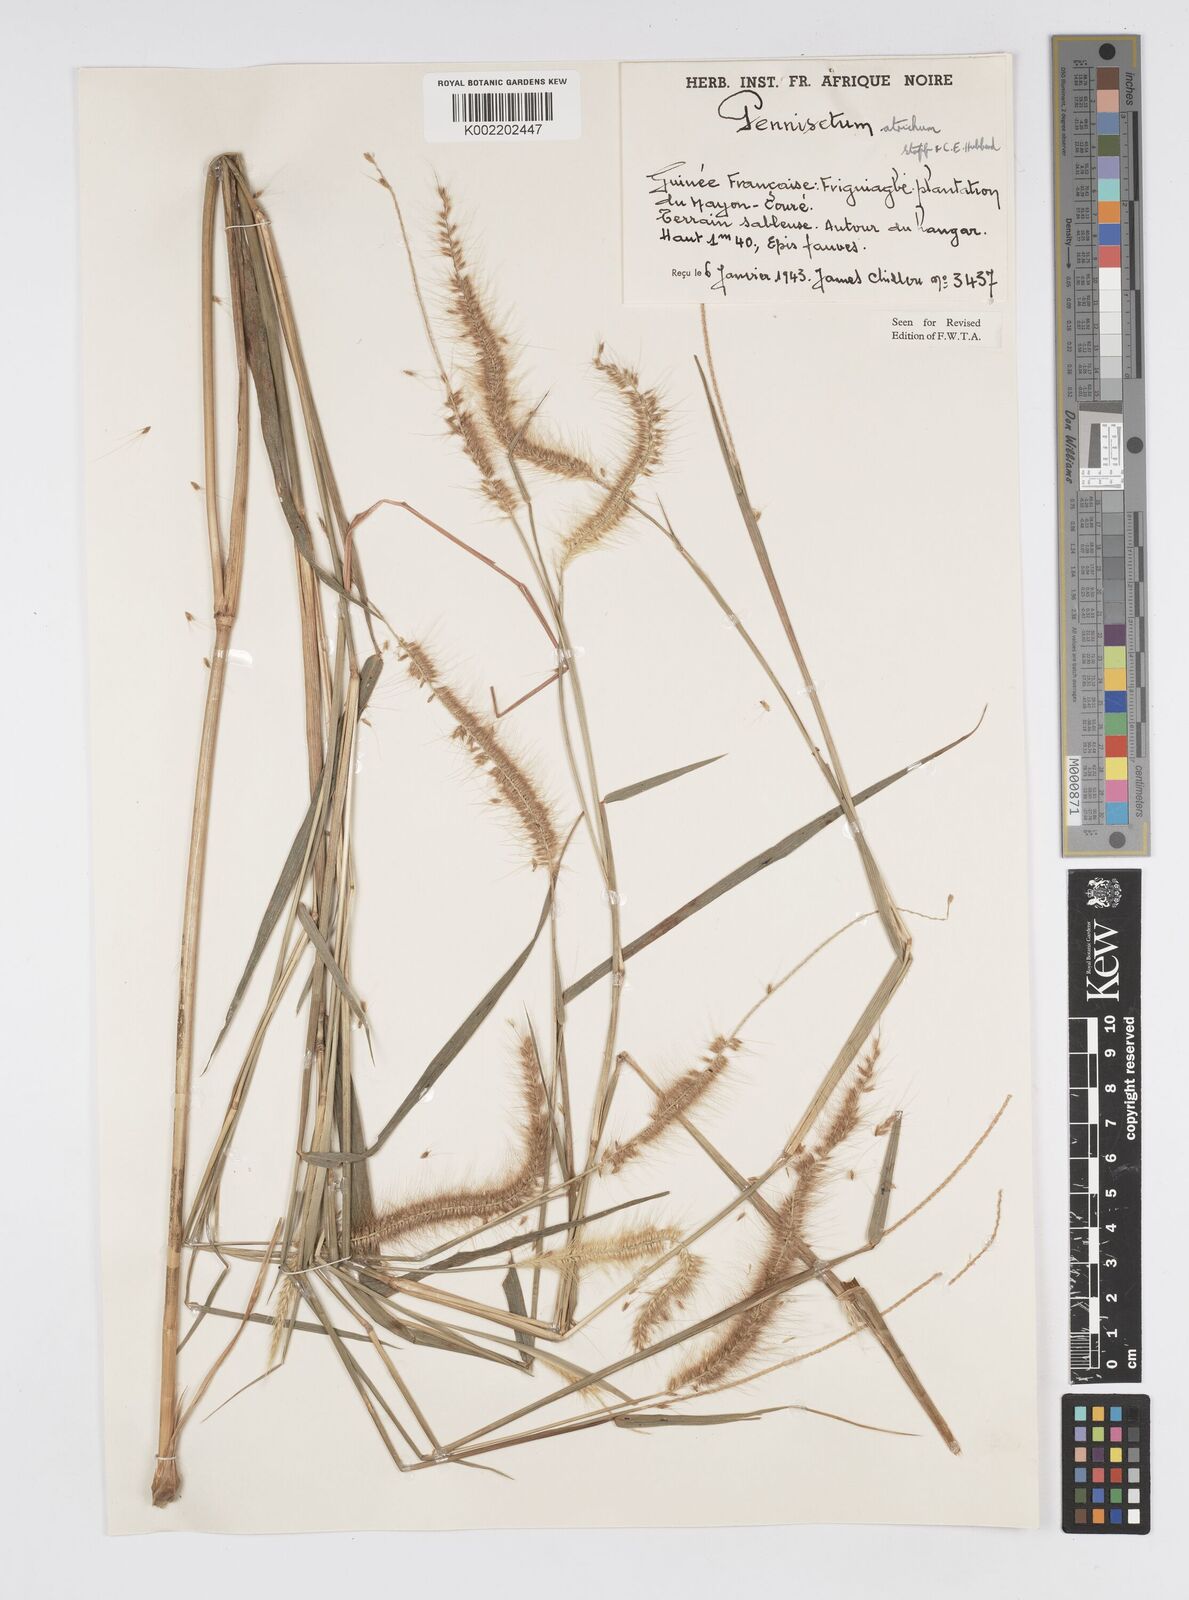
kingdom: Plantae
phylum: Tracheophyta
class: Liliopsida
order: Poales
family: Poaceae
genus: Cenchrus
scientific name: Cenchrus setosus
